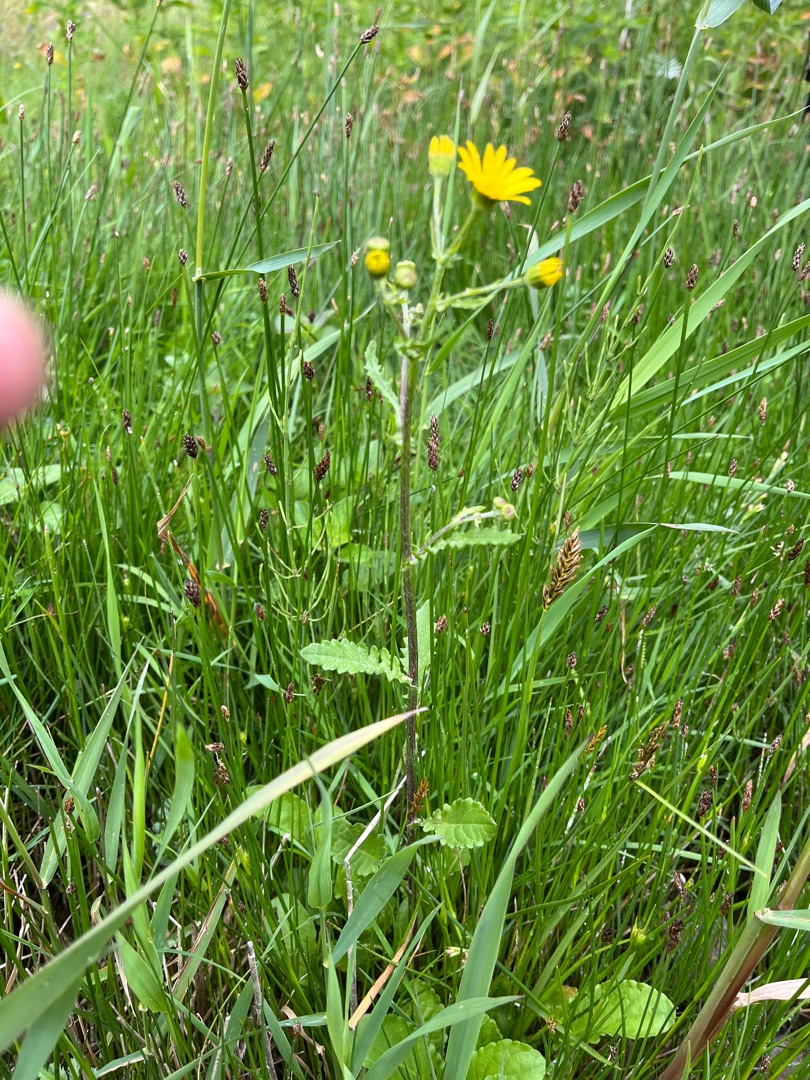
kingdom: Plantae
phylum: Tracheophyta
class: Magnoliopsida
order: Asterales
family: Asteraceae
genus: Jacobaea
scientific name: Jacobaea aquatica
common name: Vand-brandbæger
